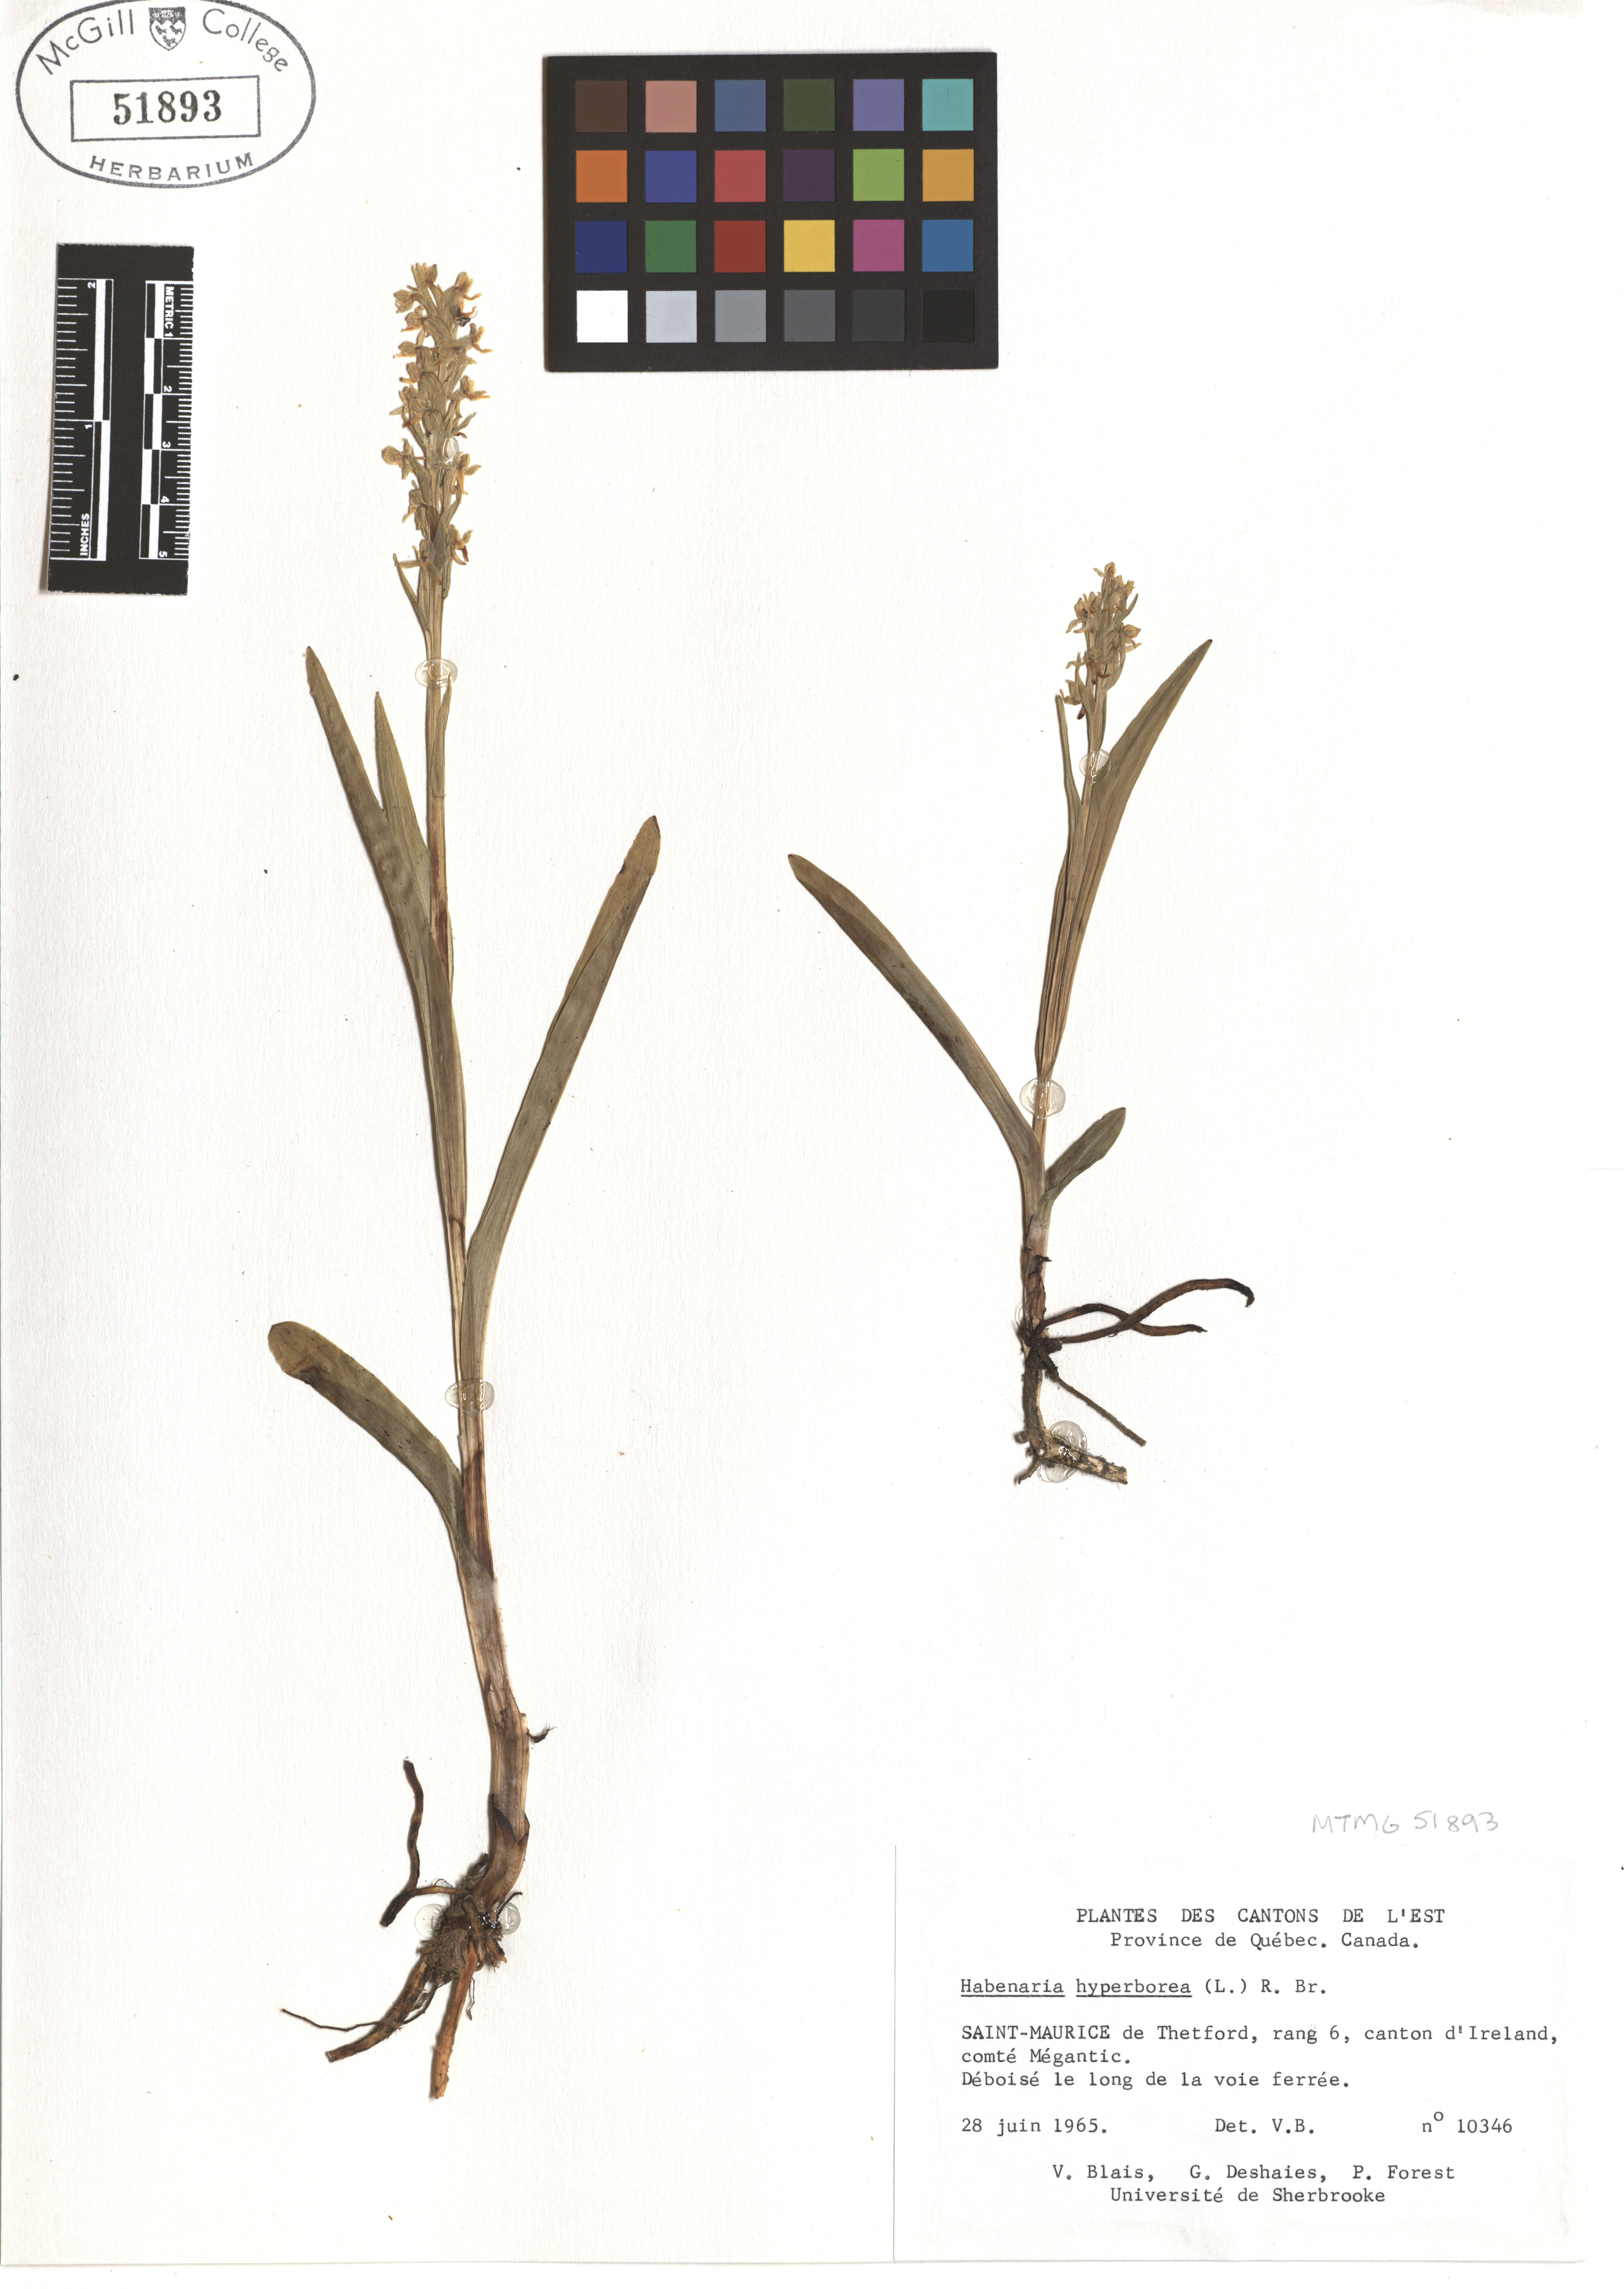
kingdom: Plantae
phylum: Tracheophyta
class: Liliopsida
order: Asparagales
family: Orchidaceae
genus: Platanthera
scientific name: Platanthera hyperborea
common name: Northern green orchid
